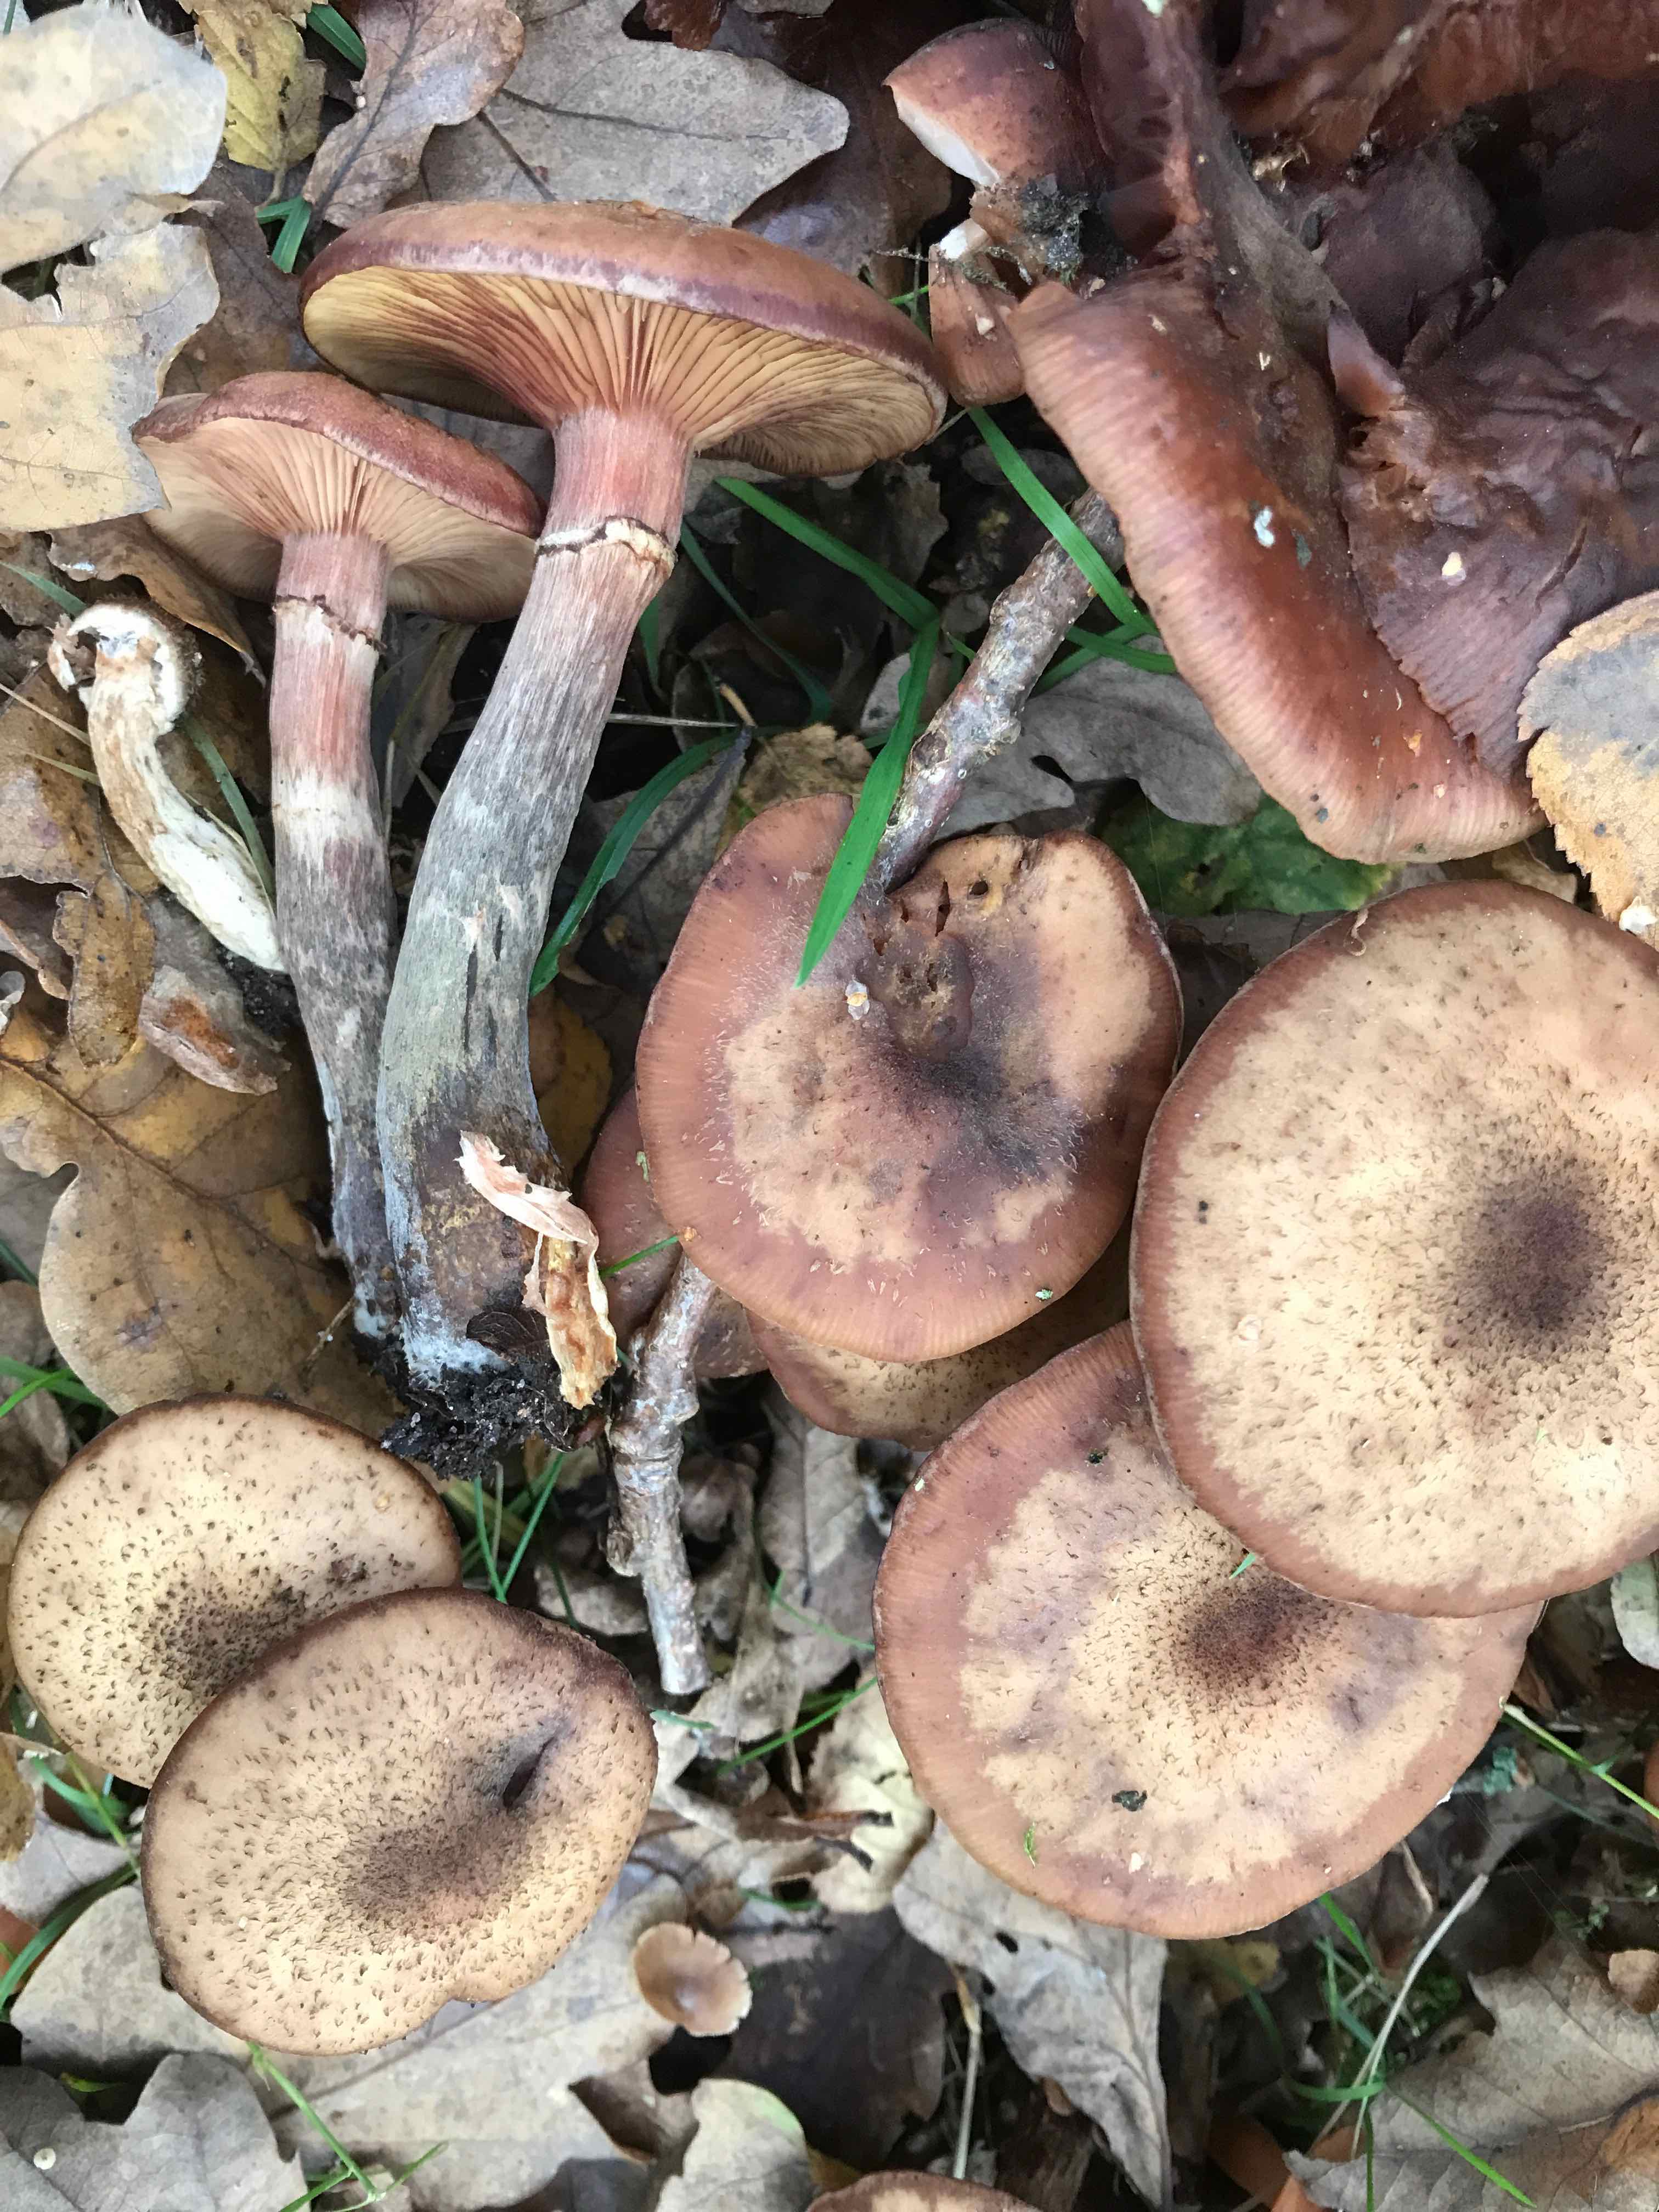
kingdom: Fungi
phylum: Basidiomycota
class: Agaricomycetes
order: Agaricales
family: Physalacriaceae
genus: Armillaria
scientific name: Armillaria lutea
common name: køllestokket honningsvamp
